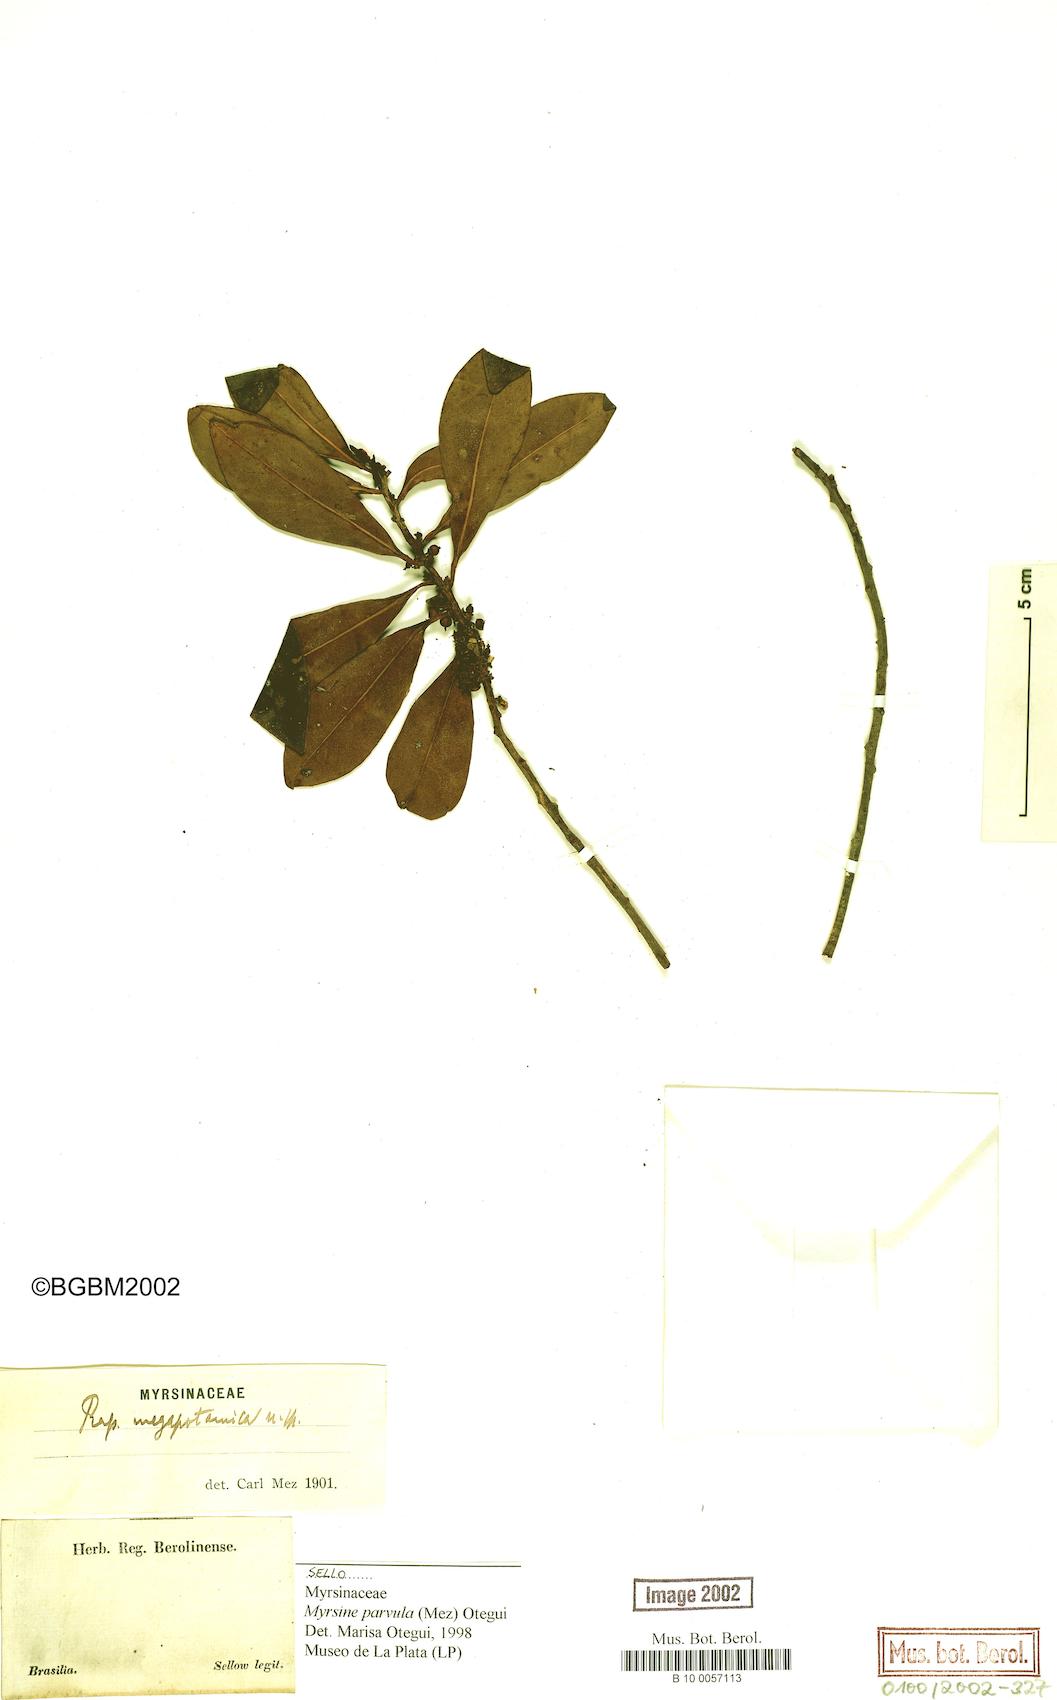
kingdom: Plantae
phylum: Tracheophyta
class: Magnoliopsida
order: Ericales
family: Primulaceae
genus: Myrsine
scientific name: Myrsine lorentziana
